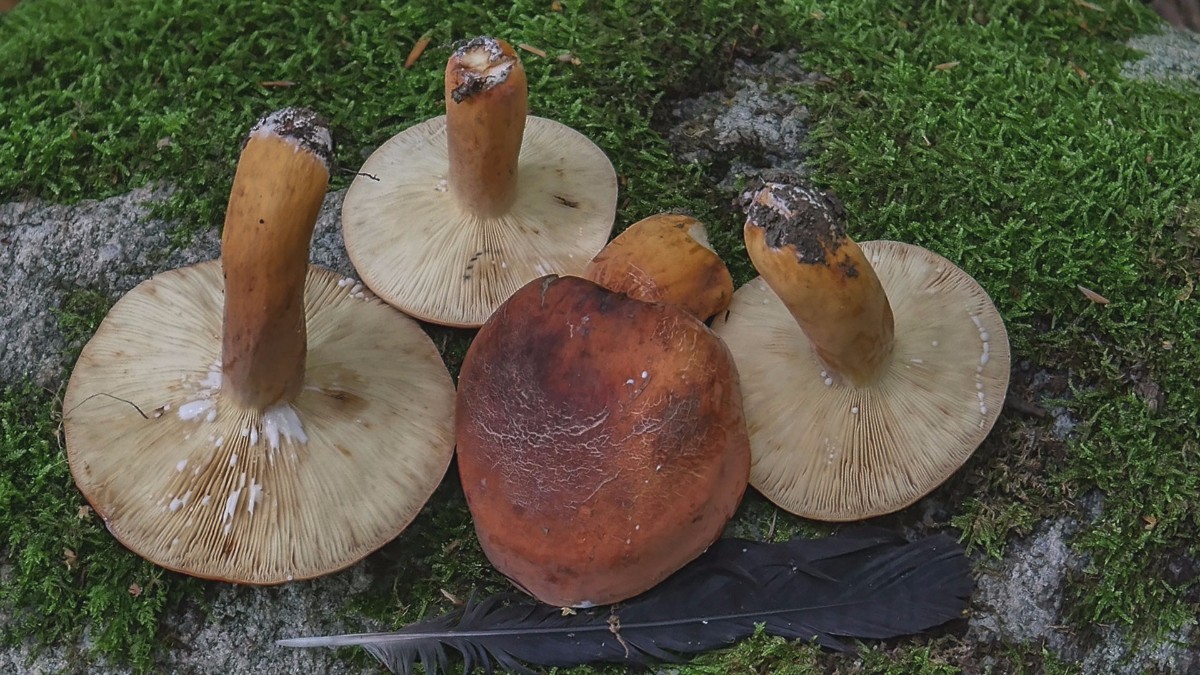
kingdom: Fungi
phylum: Basidiomycota
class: Agaricomycetes
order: Russulales
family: Russulaceae
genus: Lactifluus
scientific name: Lactifluus volemus
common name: spiselig mælkehat
